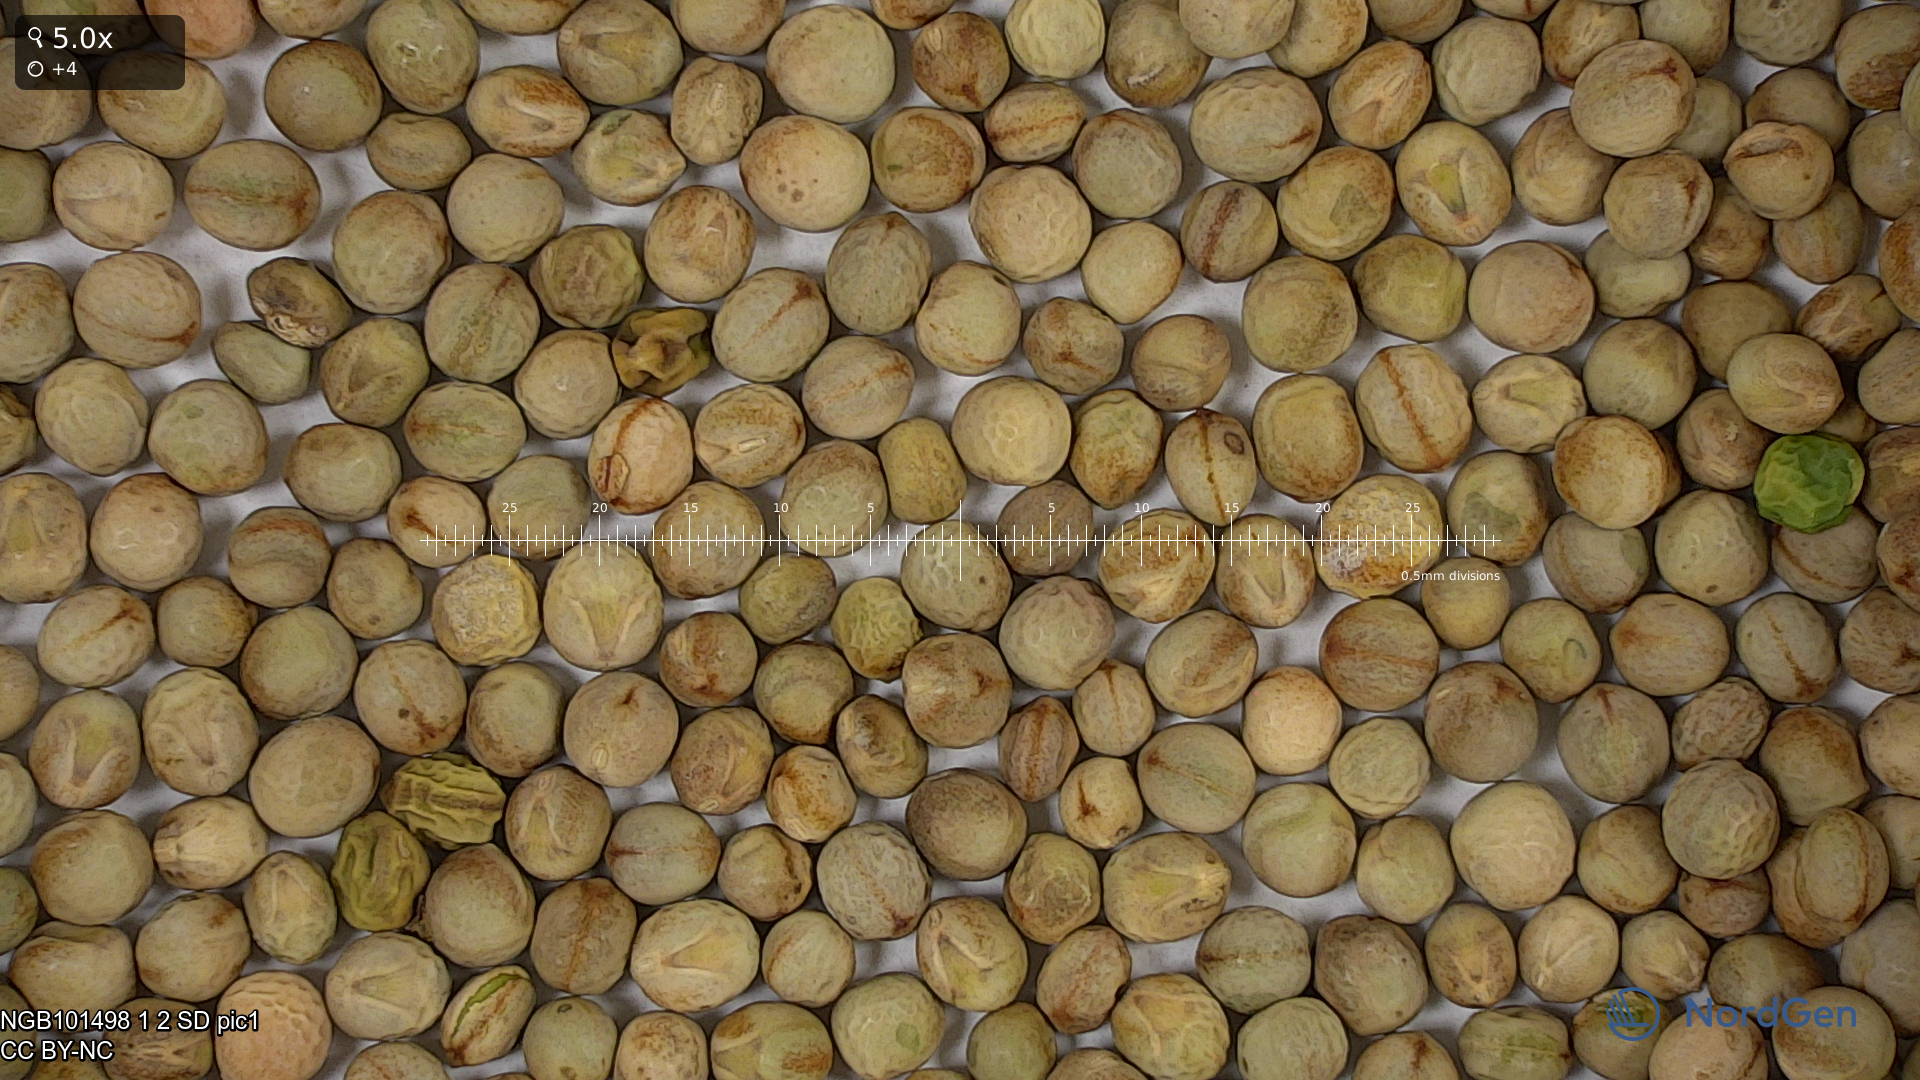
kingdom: Plantae
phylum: Tracheophyta
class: Magnoliopsida
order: Fabales
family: Fabaceae
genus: Lathyrus
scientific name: Lathyrus oleraceus
